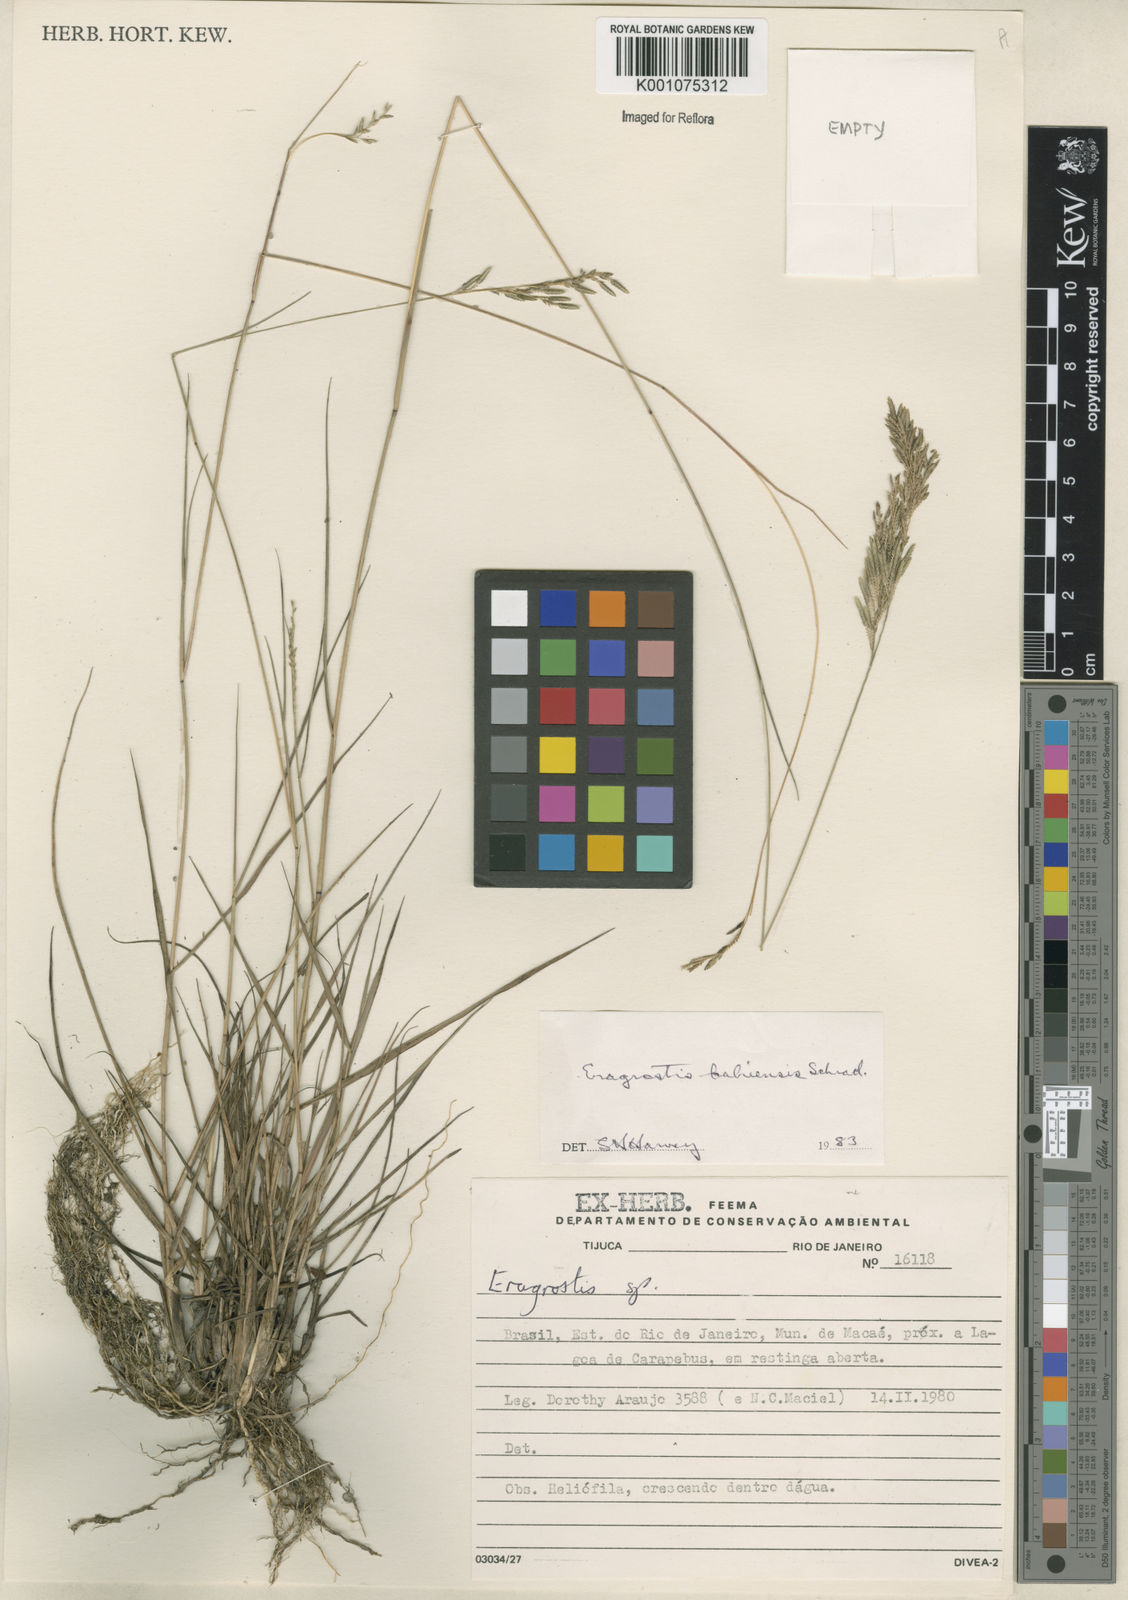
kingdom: Plantae
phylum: Tracheophyta
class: Liliopsida
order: Poales
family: Poaceae
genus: Eragrostis
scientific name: Eragrostis bahiensis
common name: Bahia lovegrass
